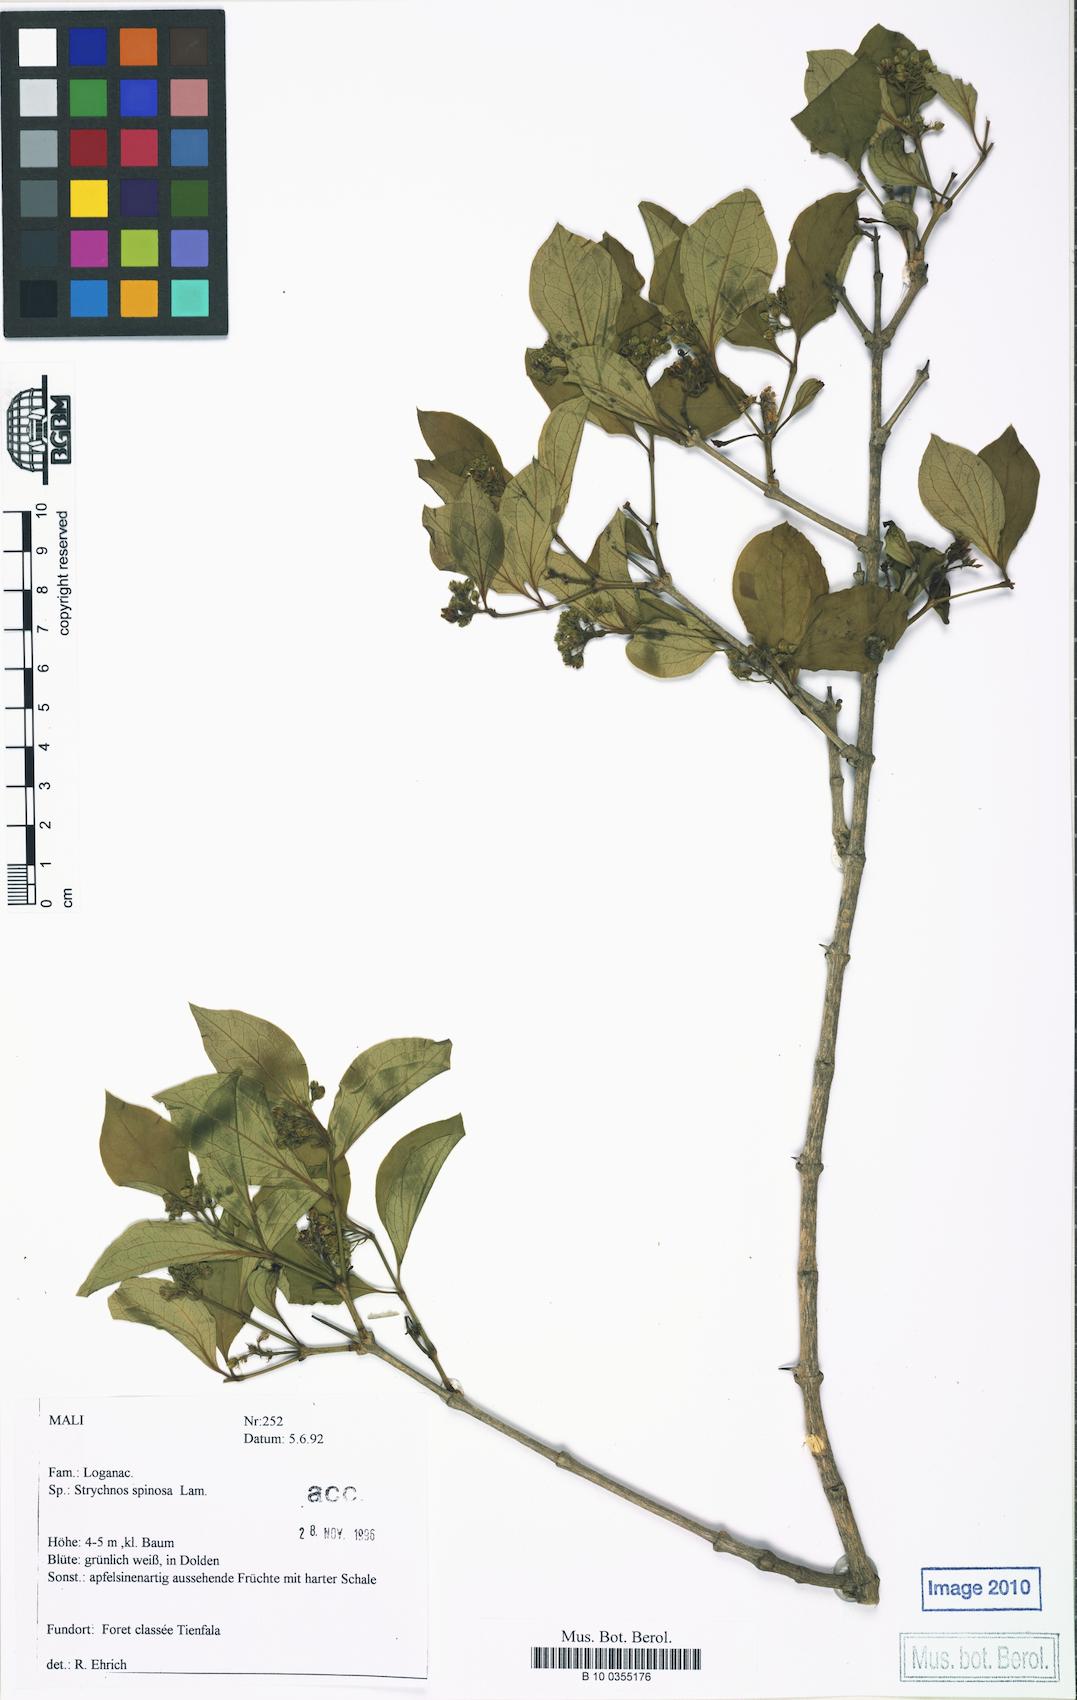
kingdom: Plantae
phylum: Tracheophyta
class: Magnoliopsida
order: Gentianales
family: Loganiaceae
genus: Strychnos
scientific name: Strychnos spinosa
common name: Natal orange
